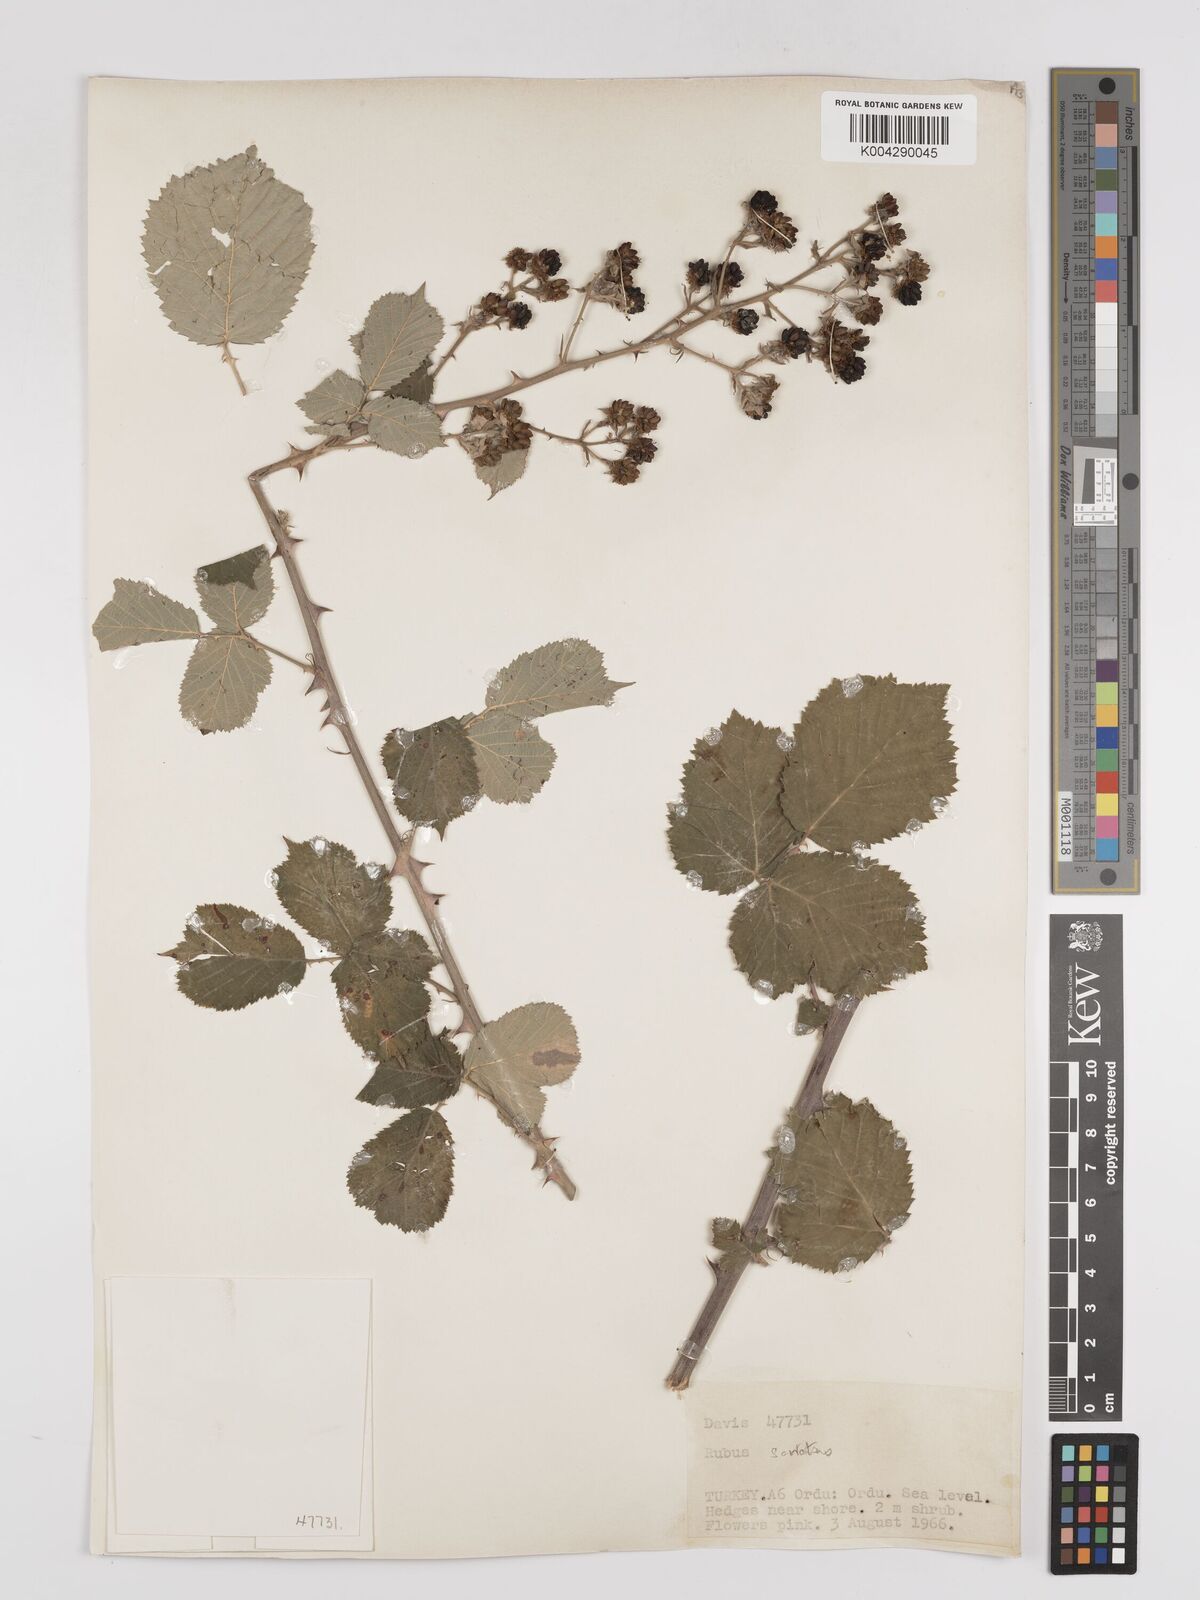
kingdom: Plantae
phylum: Tracheophyta
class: Magnoliopsida
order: Rosales
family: Rosaceae
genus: Rubus
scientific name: Rubus sanctus
